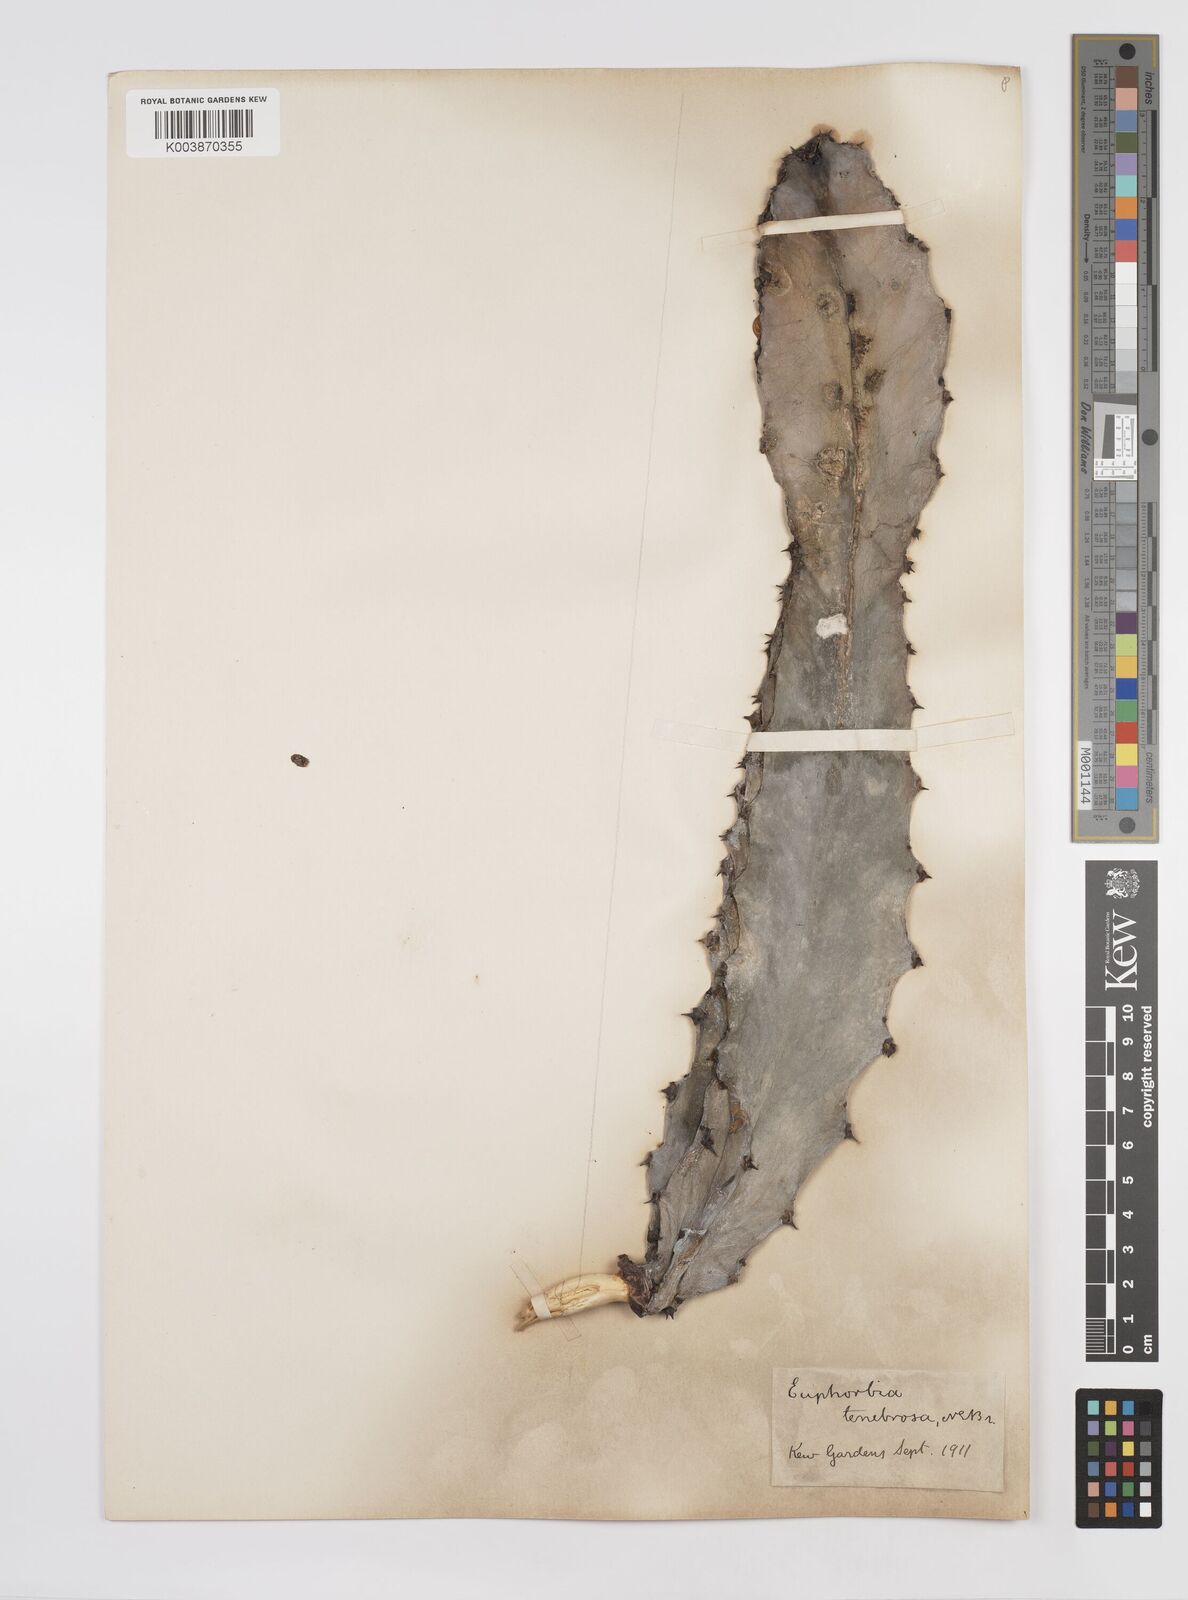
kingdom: Plantae
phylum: Tracheophyta
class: Magnoliopsida
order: Malpighiales
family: Euphorbiaceae
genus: Euphorbia
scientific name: Euphorbia abyssinica
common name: Abyssinian spurge
